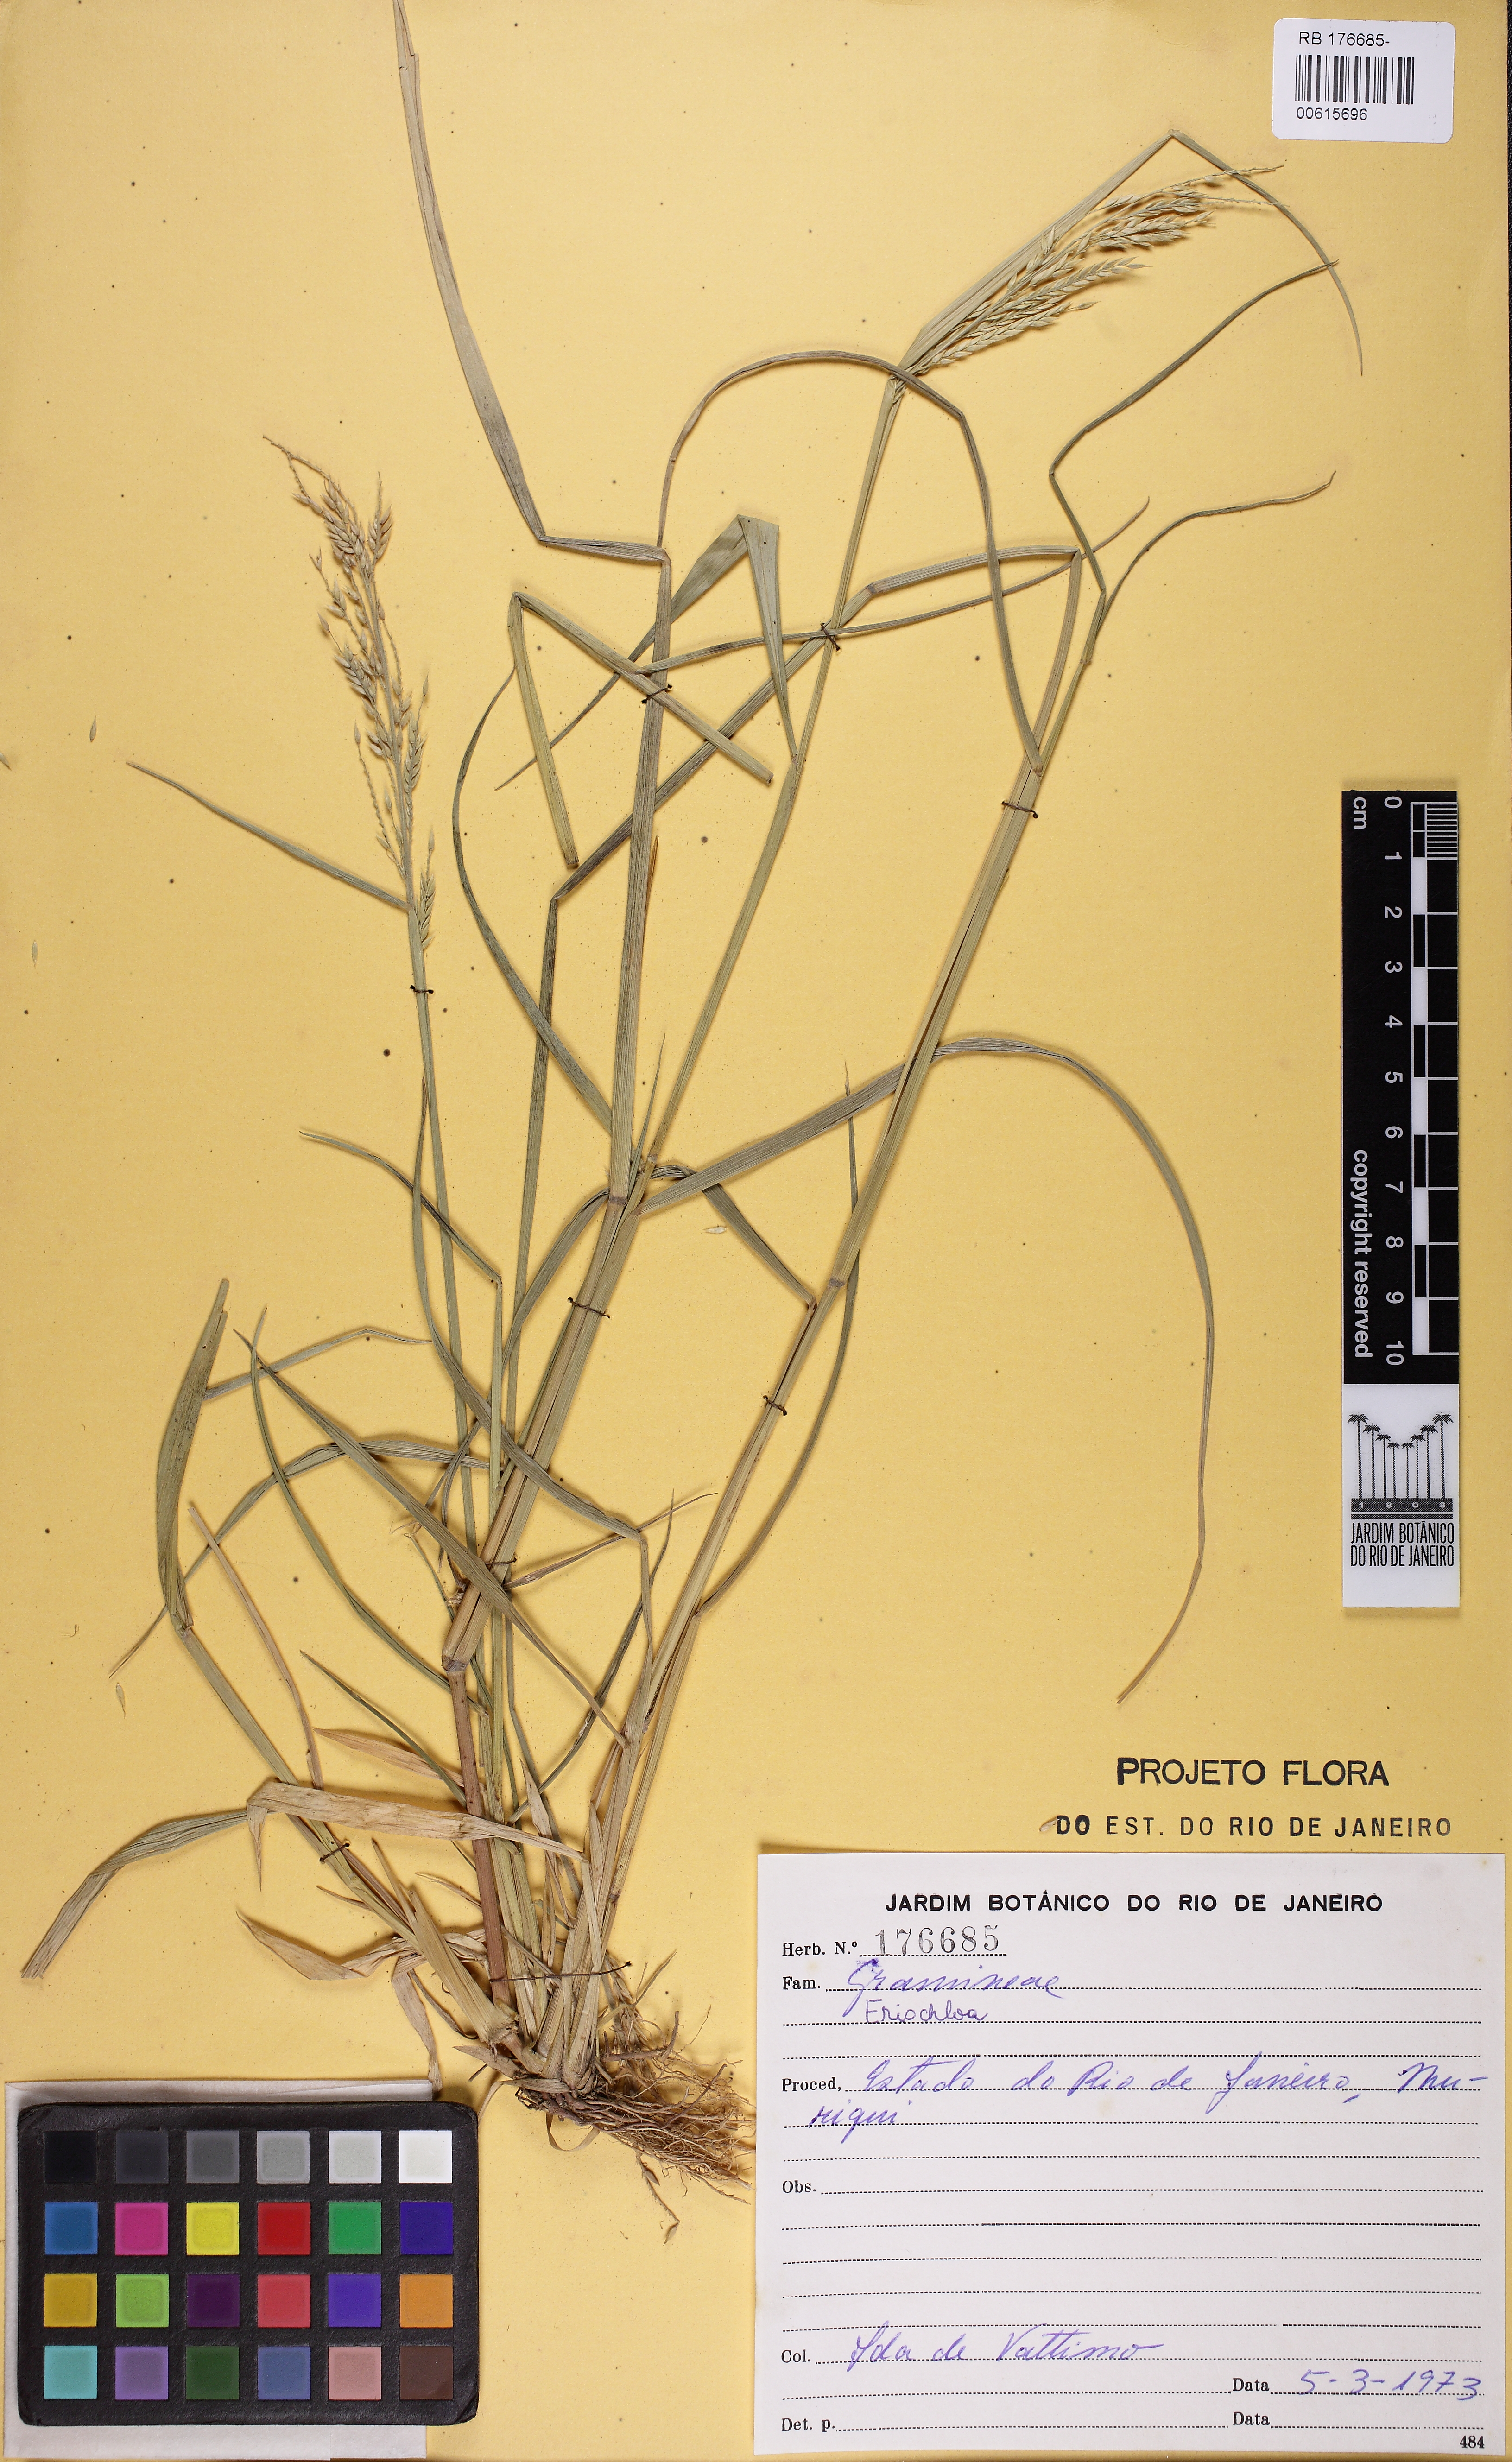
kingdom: Plantae
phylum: Tracheophyta
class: Liliopsida
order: Poales
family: Poaceae
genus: Eriochloa
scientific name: Eriochloa punctata
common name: Louisiana cupgrass
